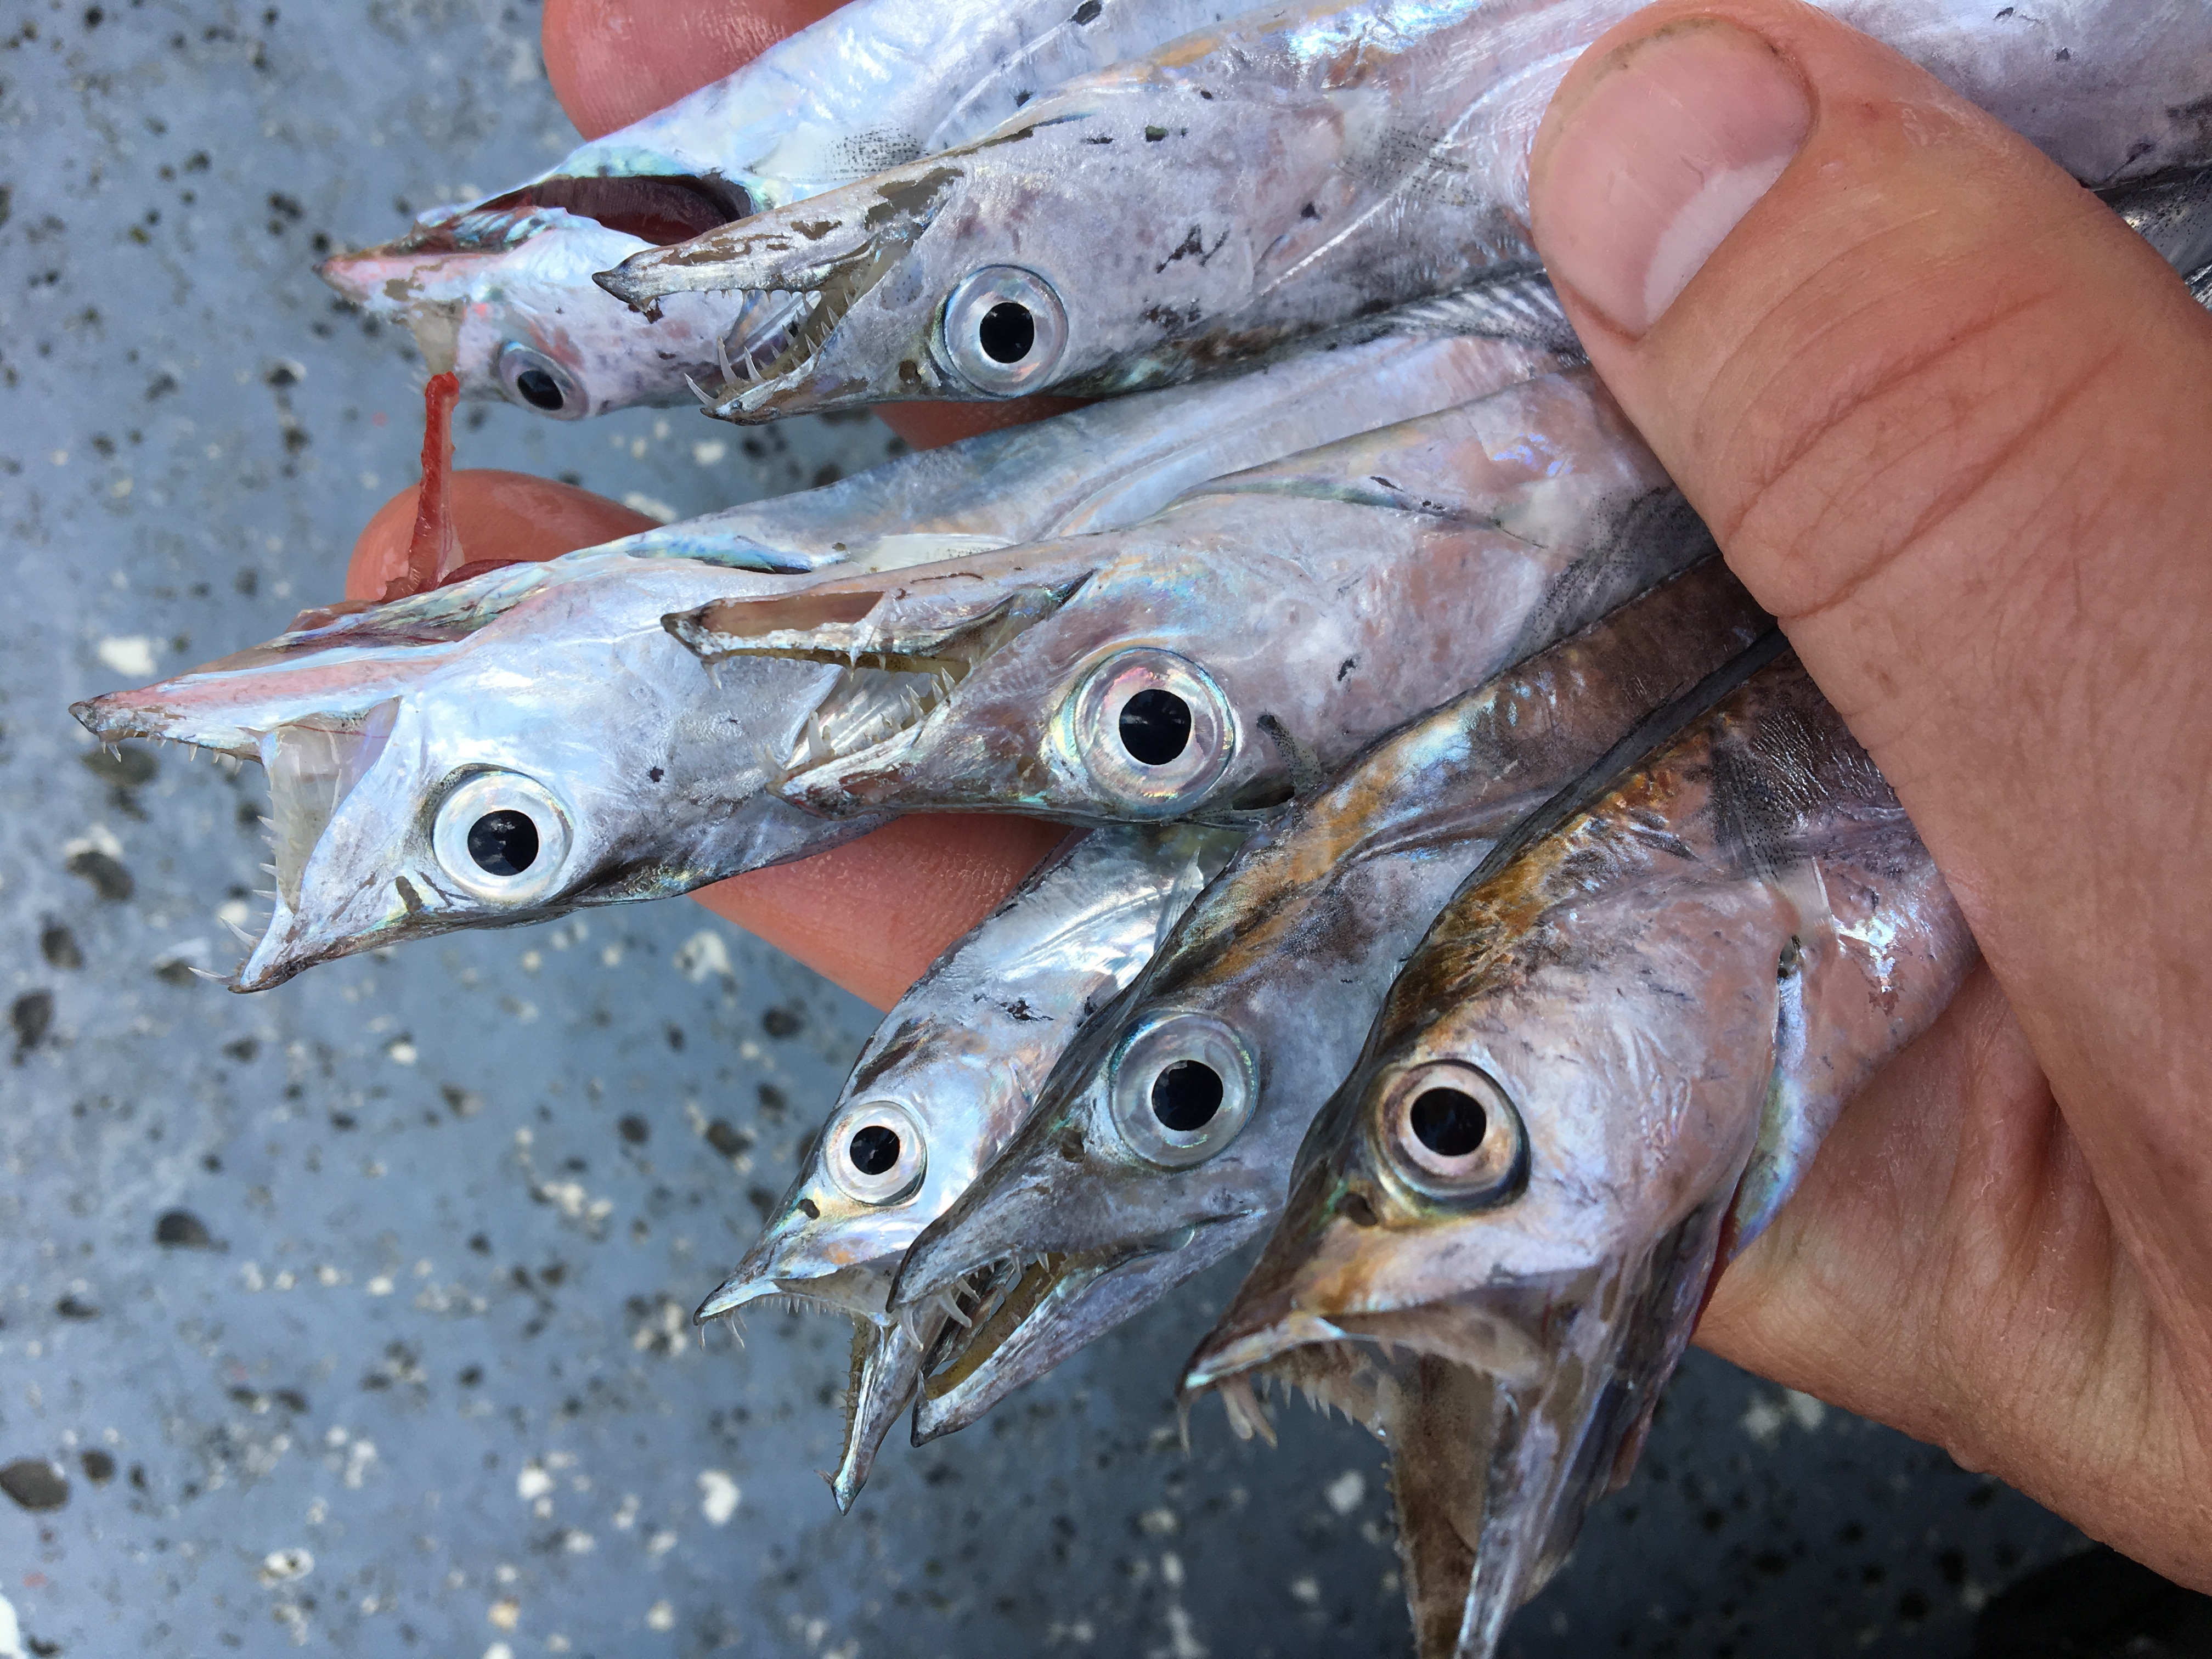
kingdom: Animalia
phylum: Chordata
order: Perciformes
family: Trichiuridae
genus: Trichiurus
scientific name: Trichiurus lepturus
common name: Largehead hairtail
